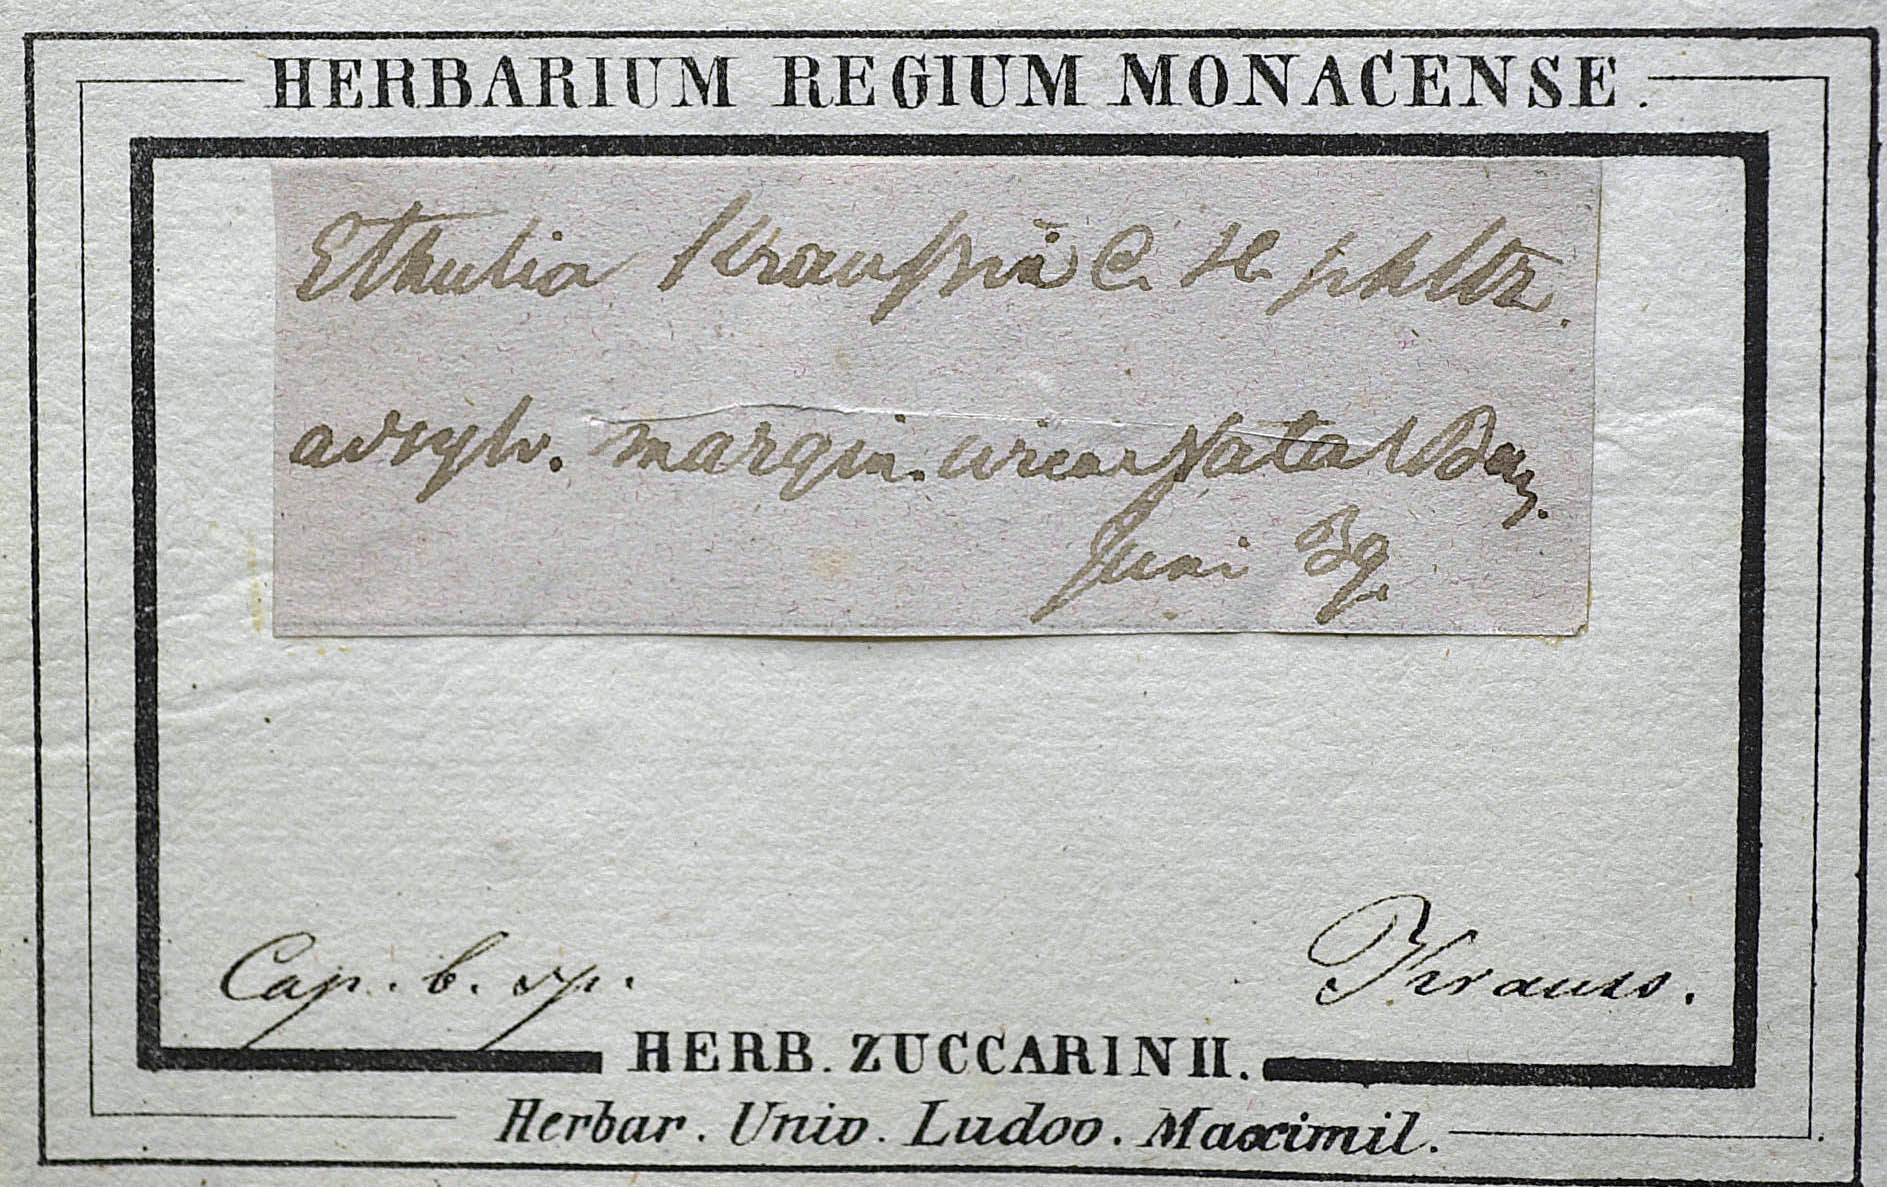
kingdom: Plantae
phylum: Tracheophyta
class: Magnoliopsida
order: Asterales
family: Asteraceae
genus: Ethulia
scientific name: Ethulia conyzoides
